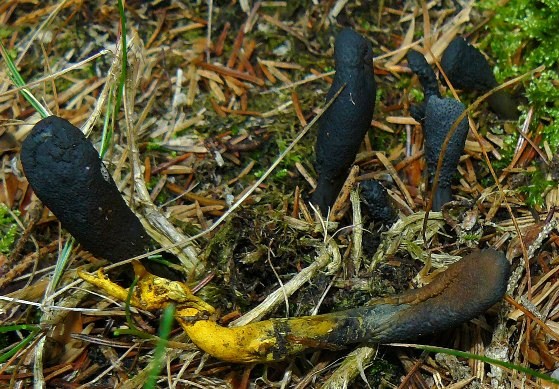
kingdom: Fungi
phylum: Ascomycota
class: Sordariomycetes
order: Hypocreales
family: Ophiocordycipitaceae
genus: Tolypocladium
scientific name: Tolypocladium ophioglossoides
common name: slank snyltekølle
